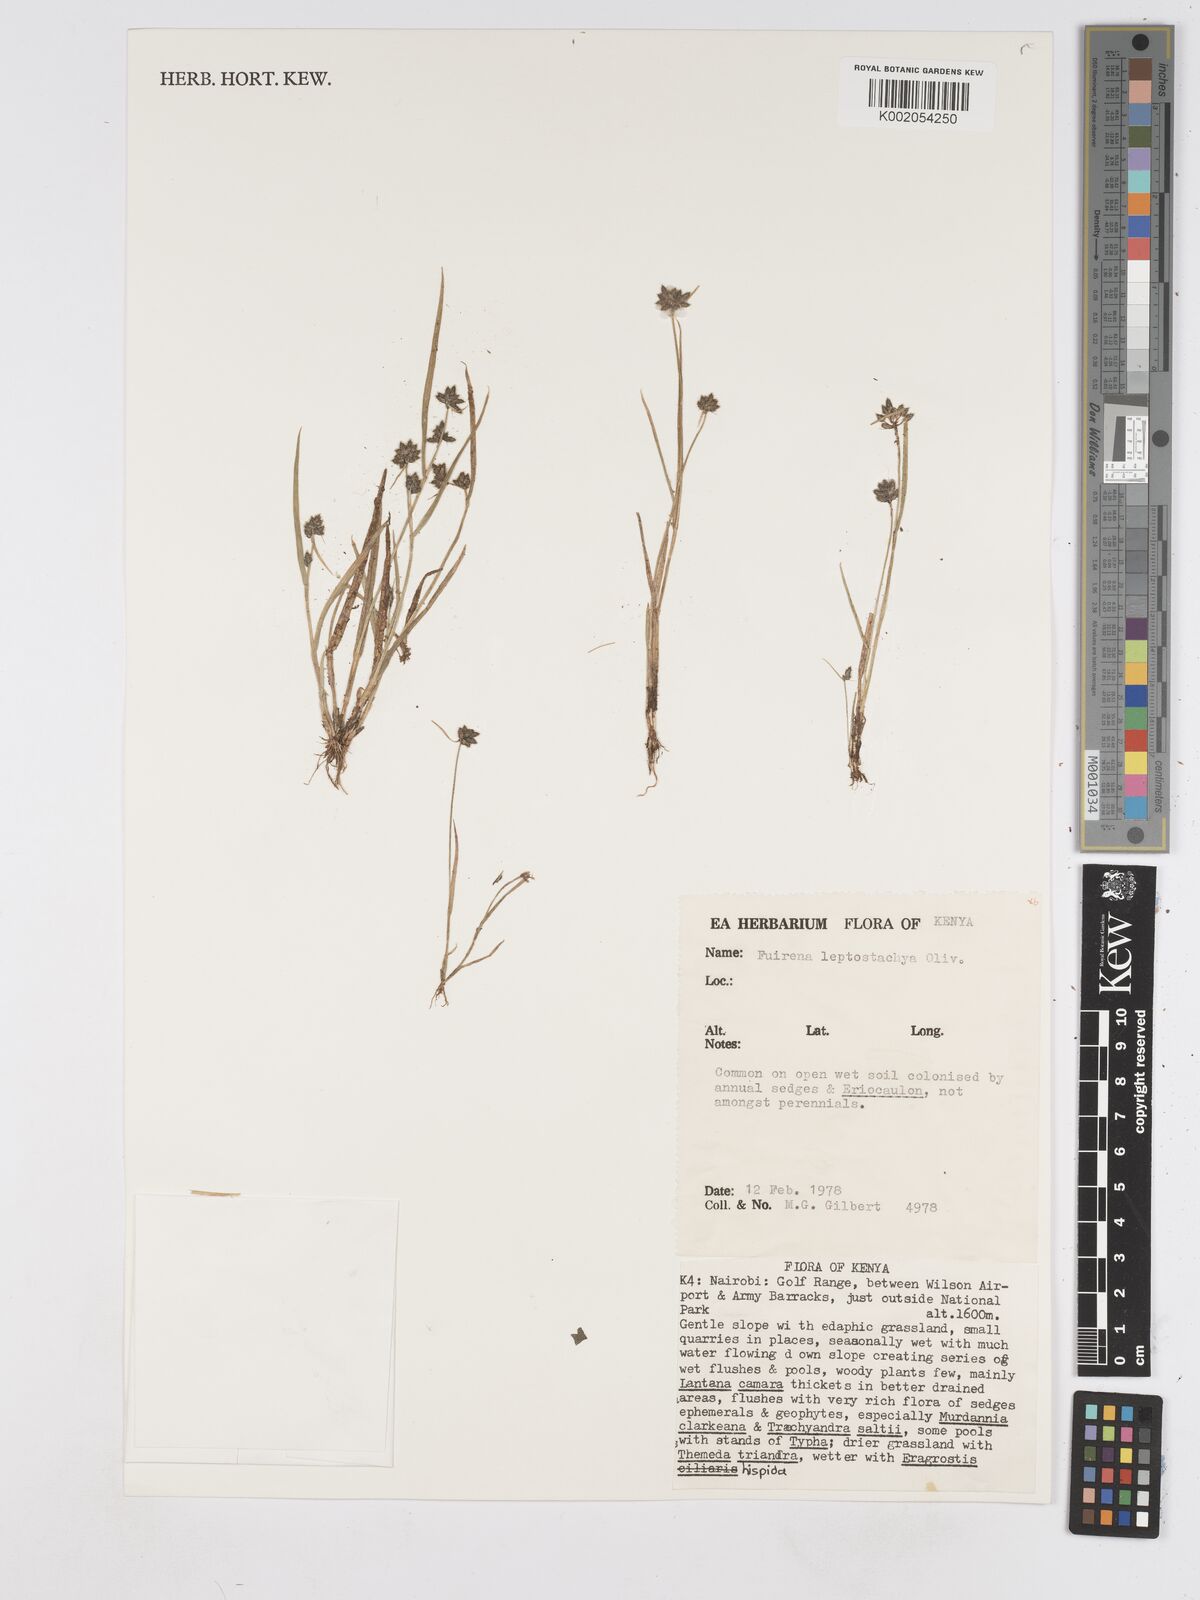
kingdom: Plantae
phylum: Tracheophyta
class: Liliopsida
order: Poales
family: Cyperaceae
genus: Fuirena
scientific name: Fuirena leptostachya
